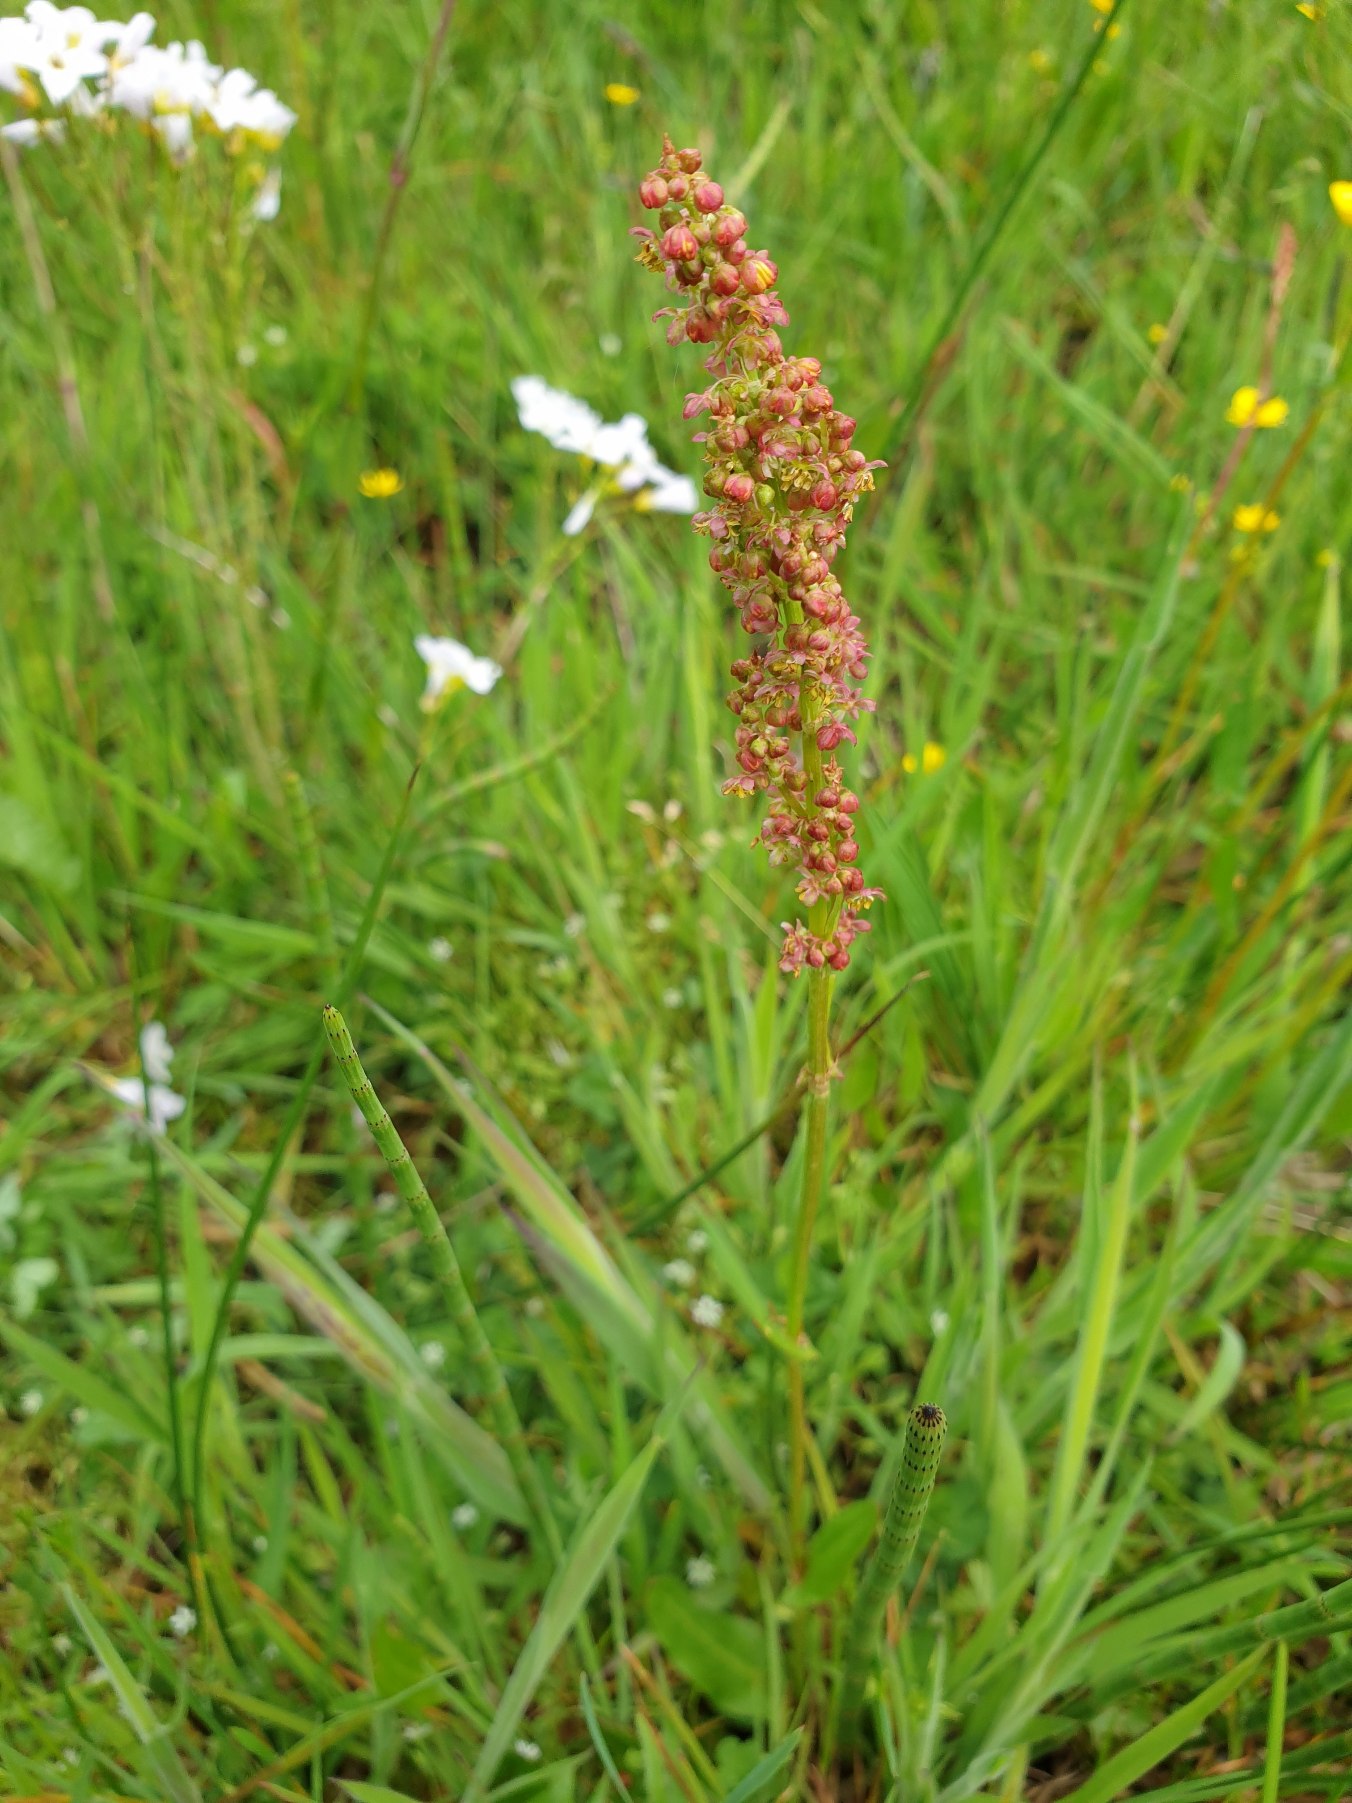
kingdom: Plantae
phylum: Tracheophyta
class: Magnoliopsida
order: Caryophyllales
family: Polygonaceae
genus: Rumex
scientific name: Rumex acetosa
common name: Almindelig syre
